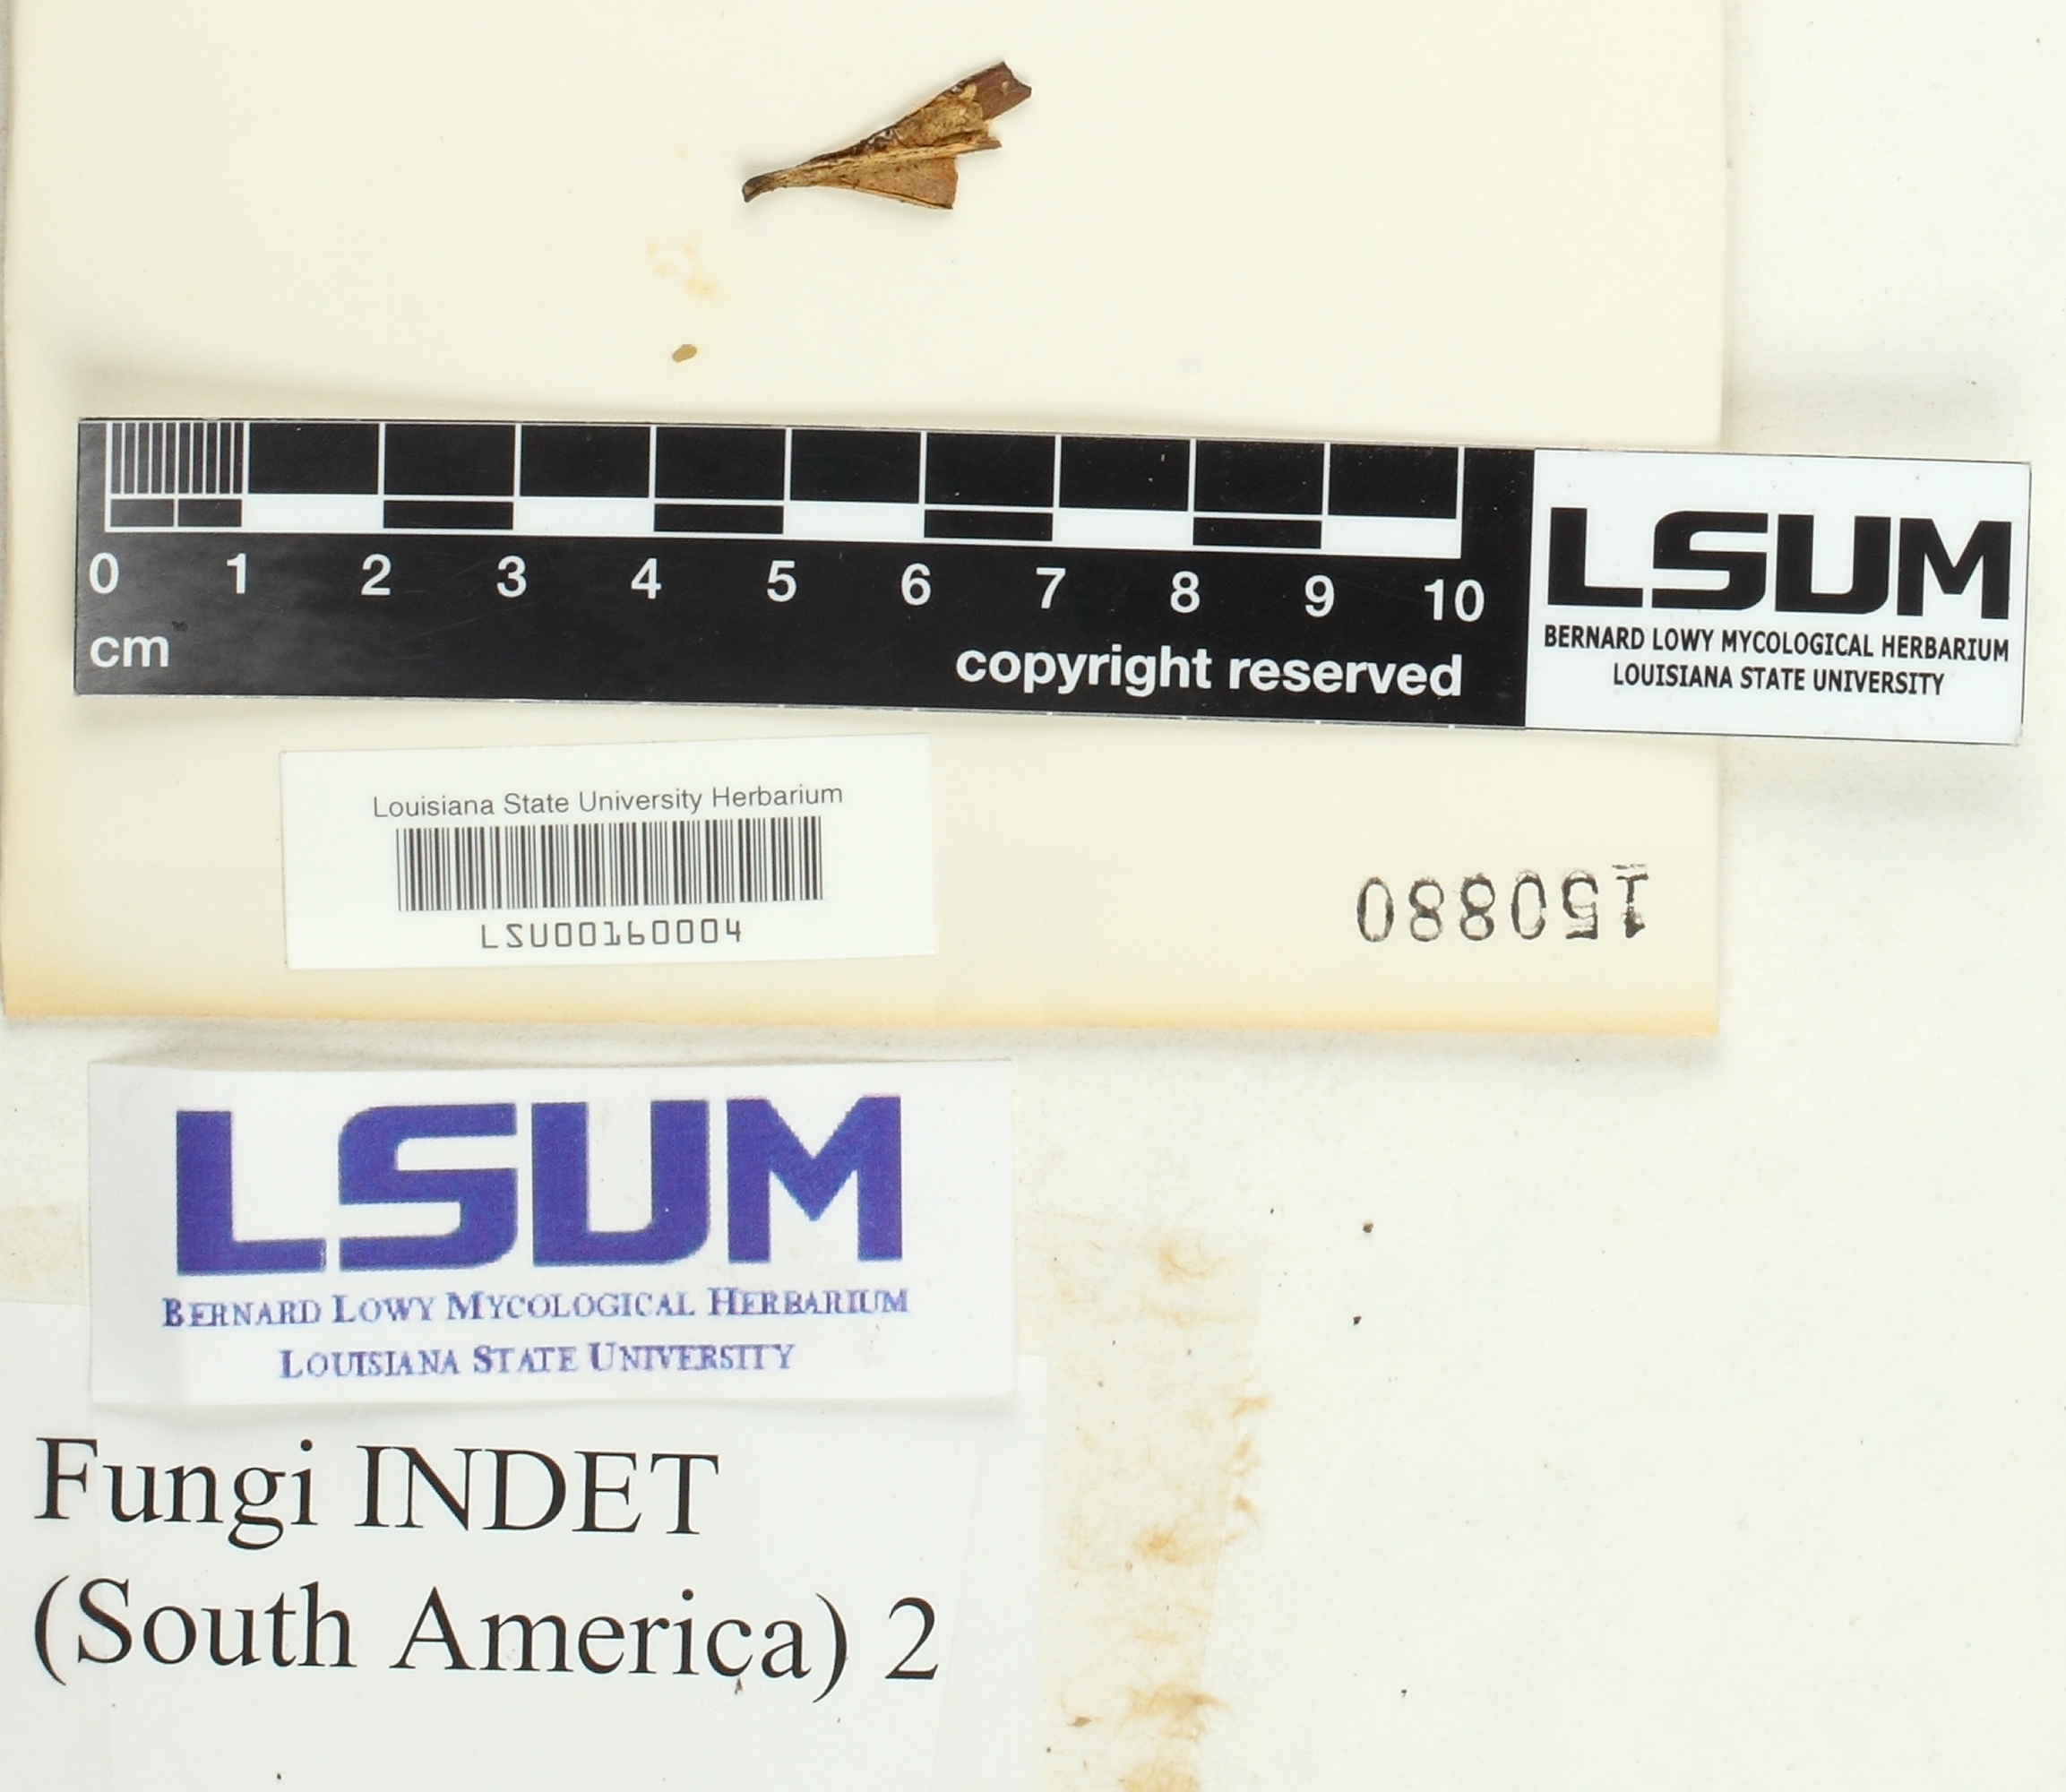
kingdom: Fungi
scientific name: Fungi
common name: Fungi
